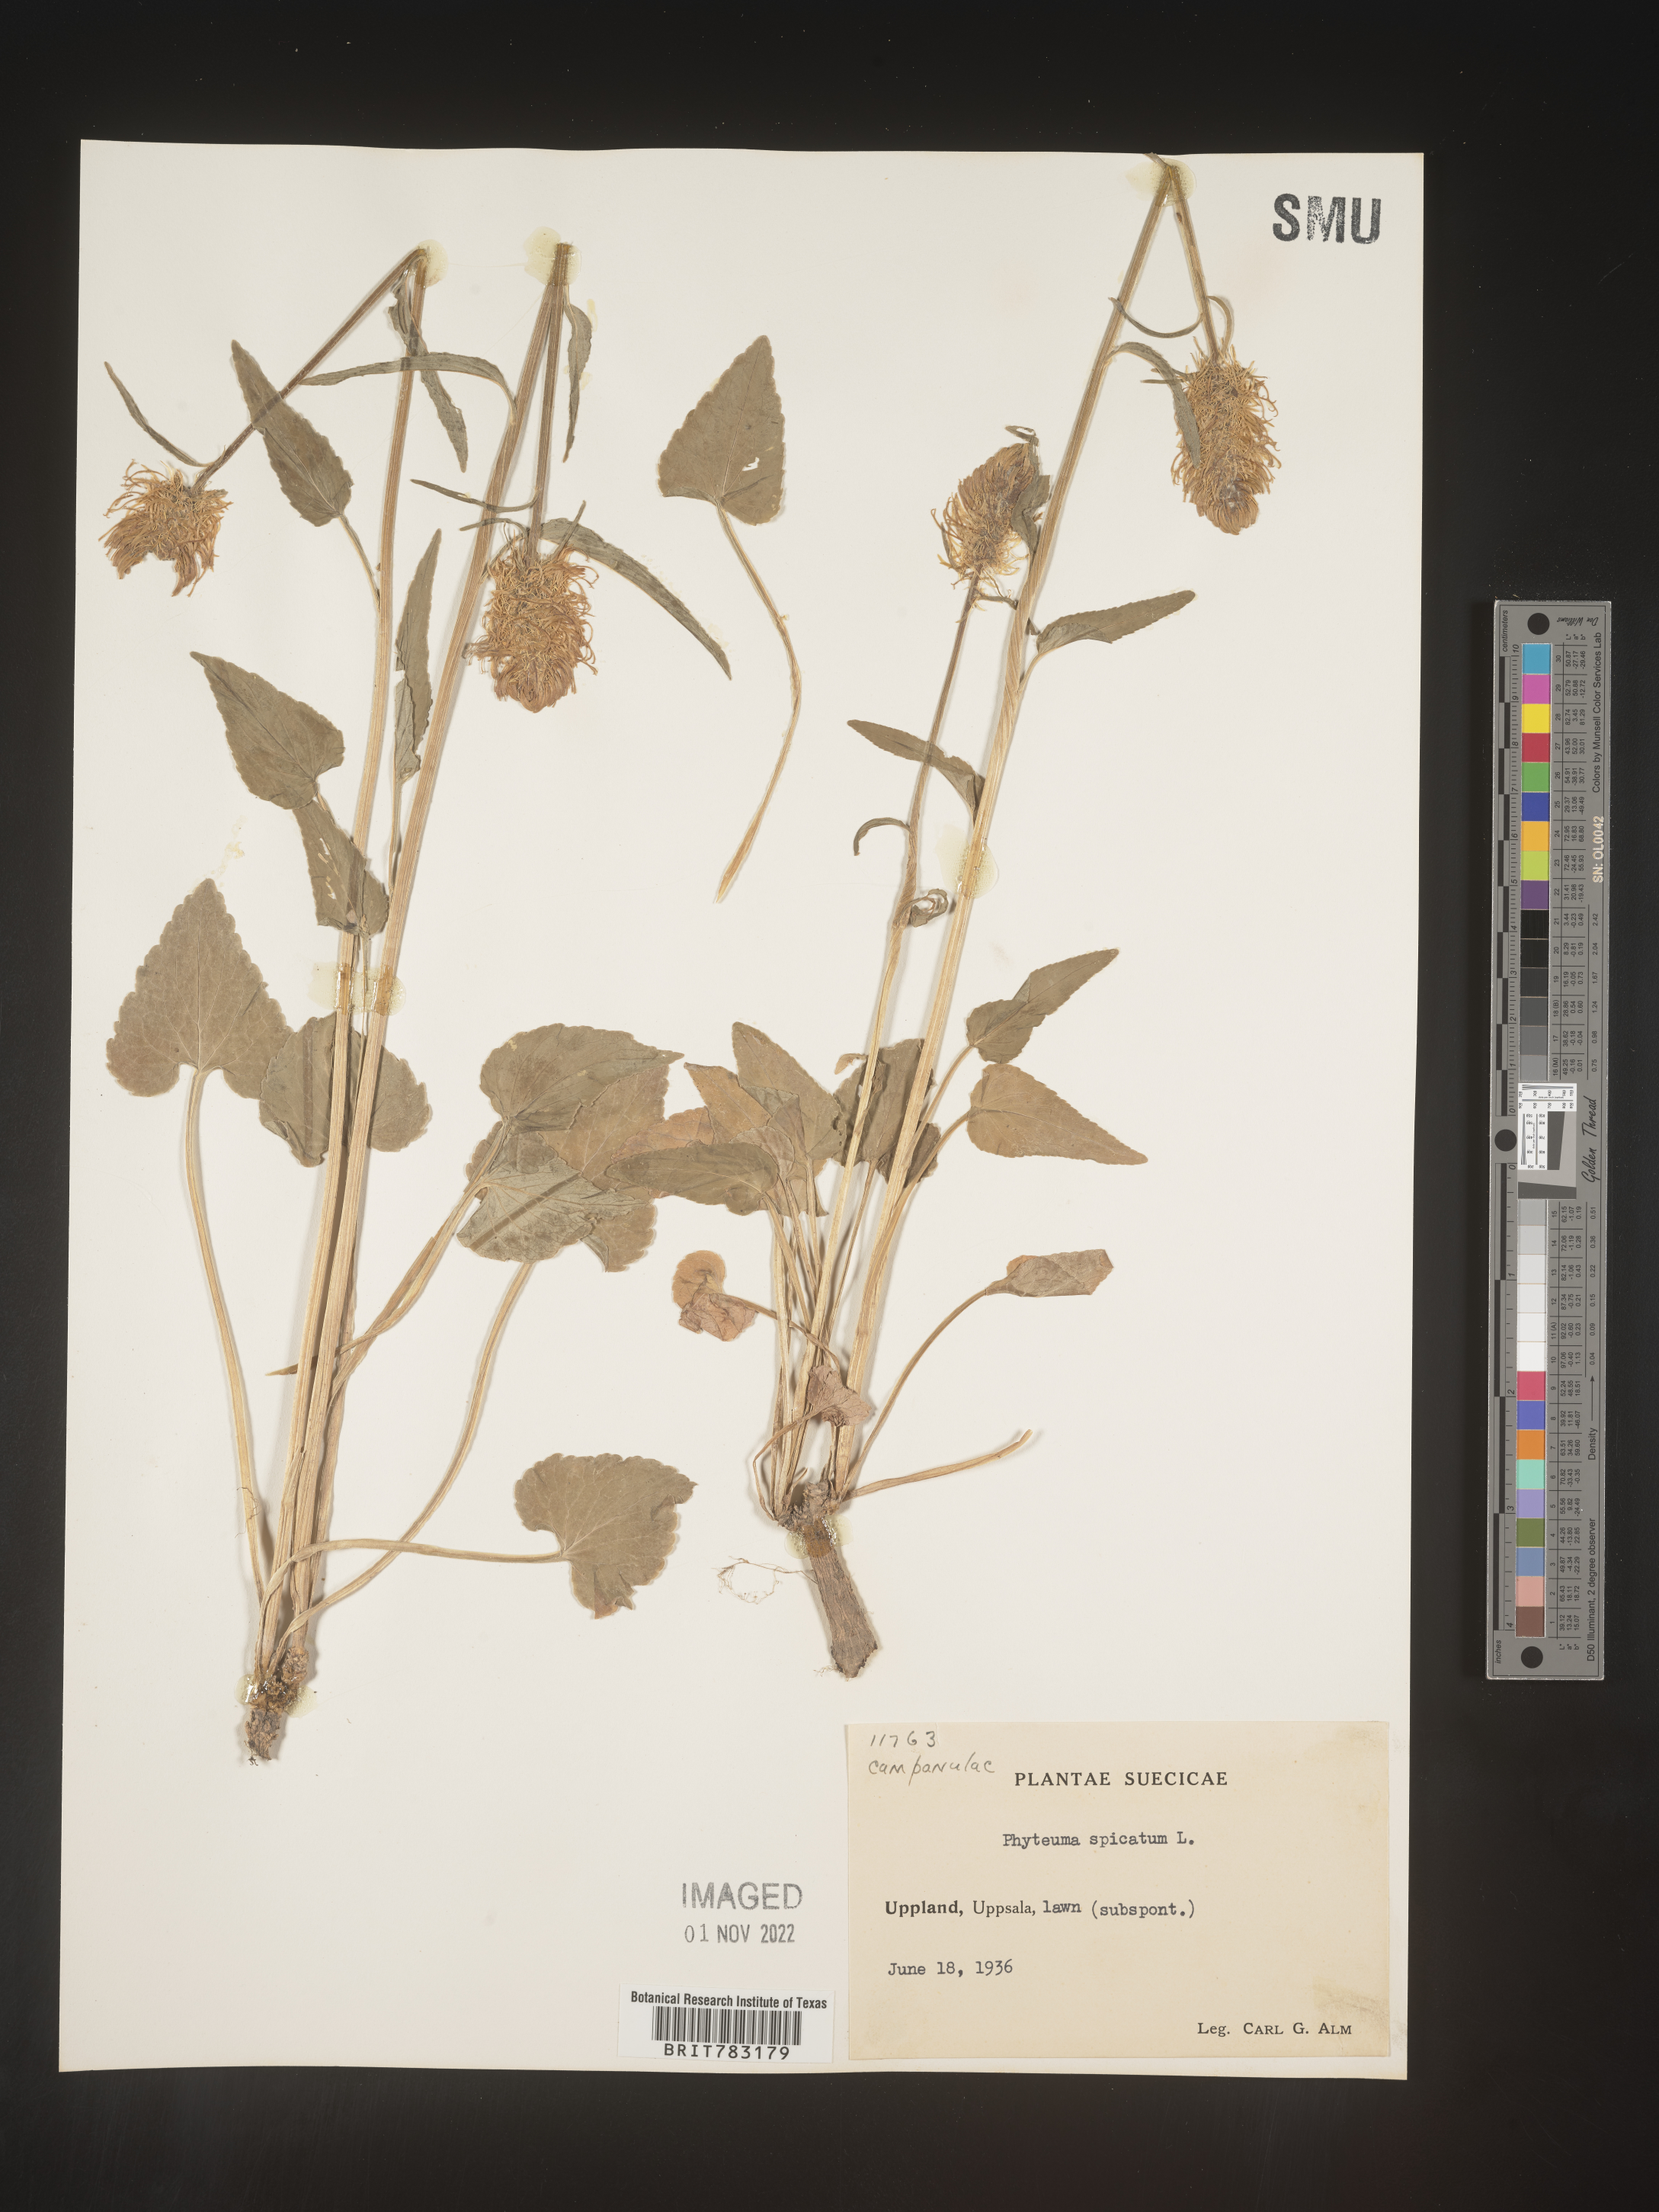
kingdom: Plantae
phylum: Tracheophyta
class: Magnoliopsida
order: Asterales
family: Campanulaceae
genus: Phyteuma
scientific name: Phyteuma
